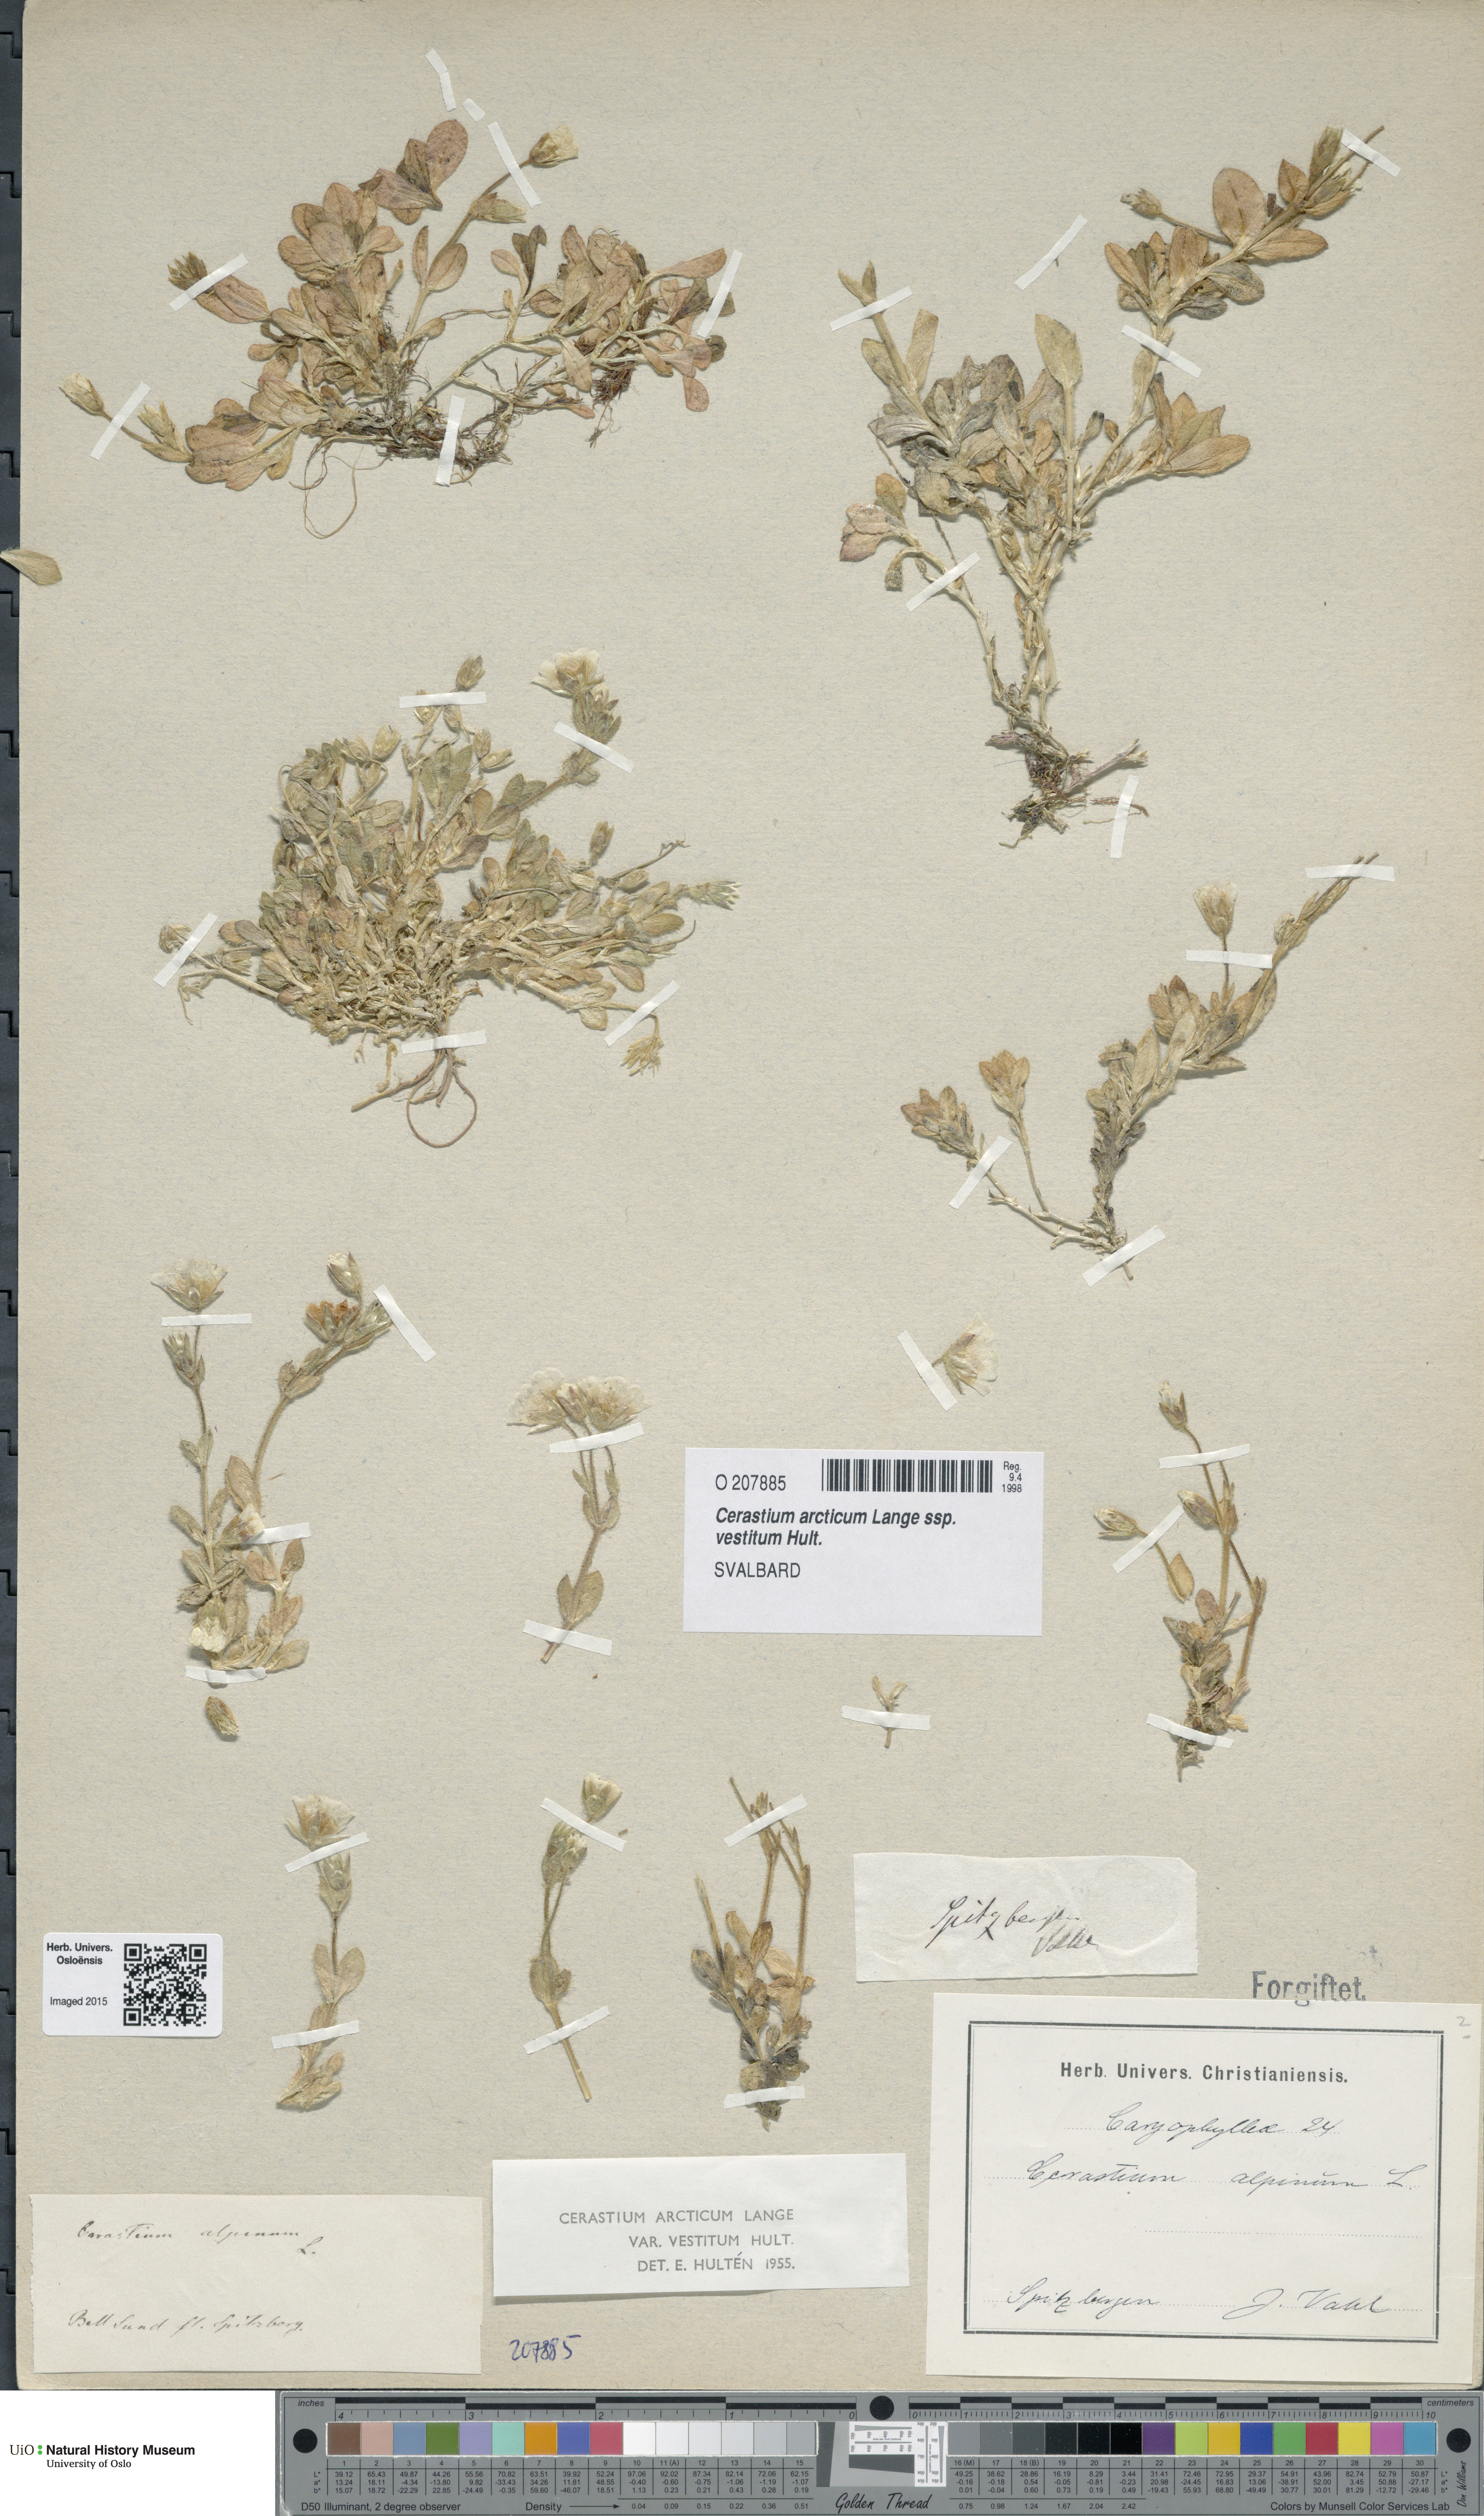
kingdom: Plantae
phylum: Tracheophyta
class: Magnoliopsida
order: Caryophyllales
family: Caryophyllaceae
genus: Cerastium
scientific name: Cerastium arcticum
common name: Arctic mouse-ear
